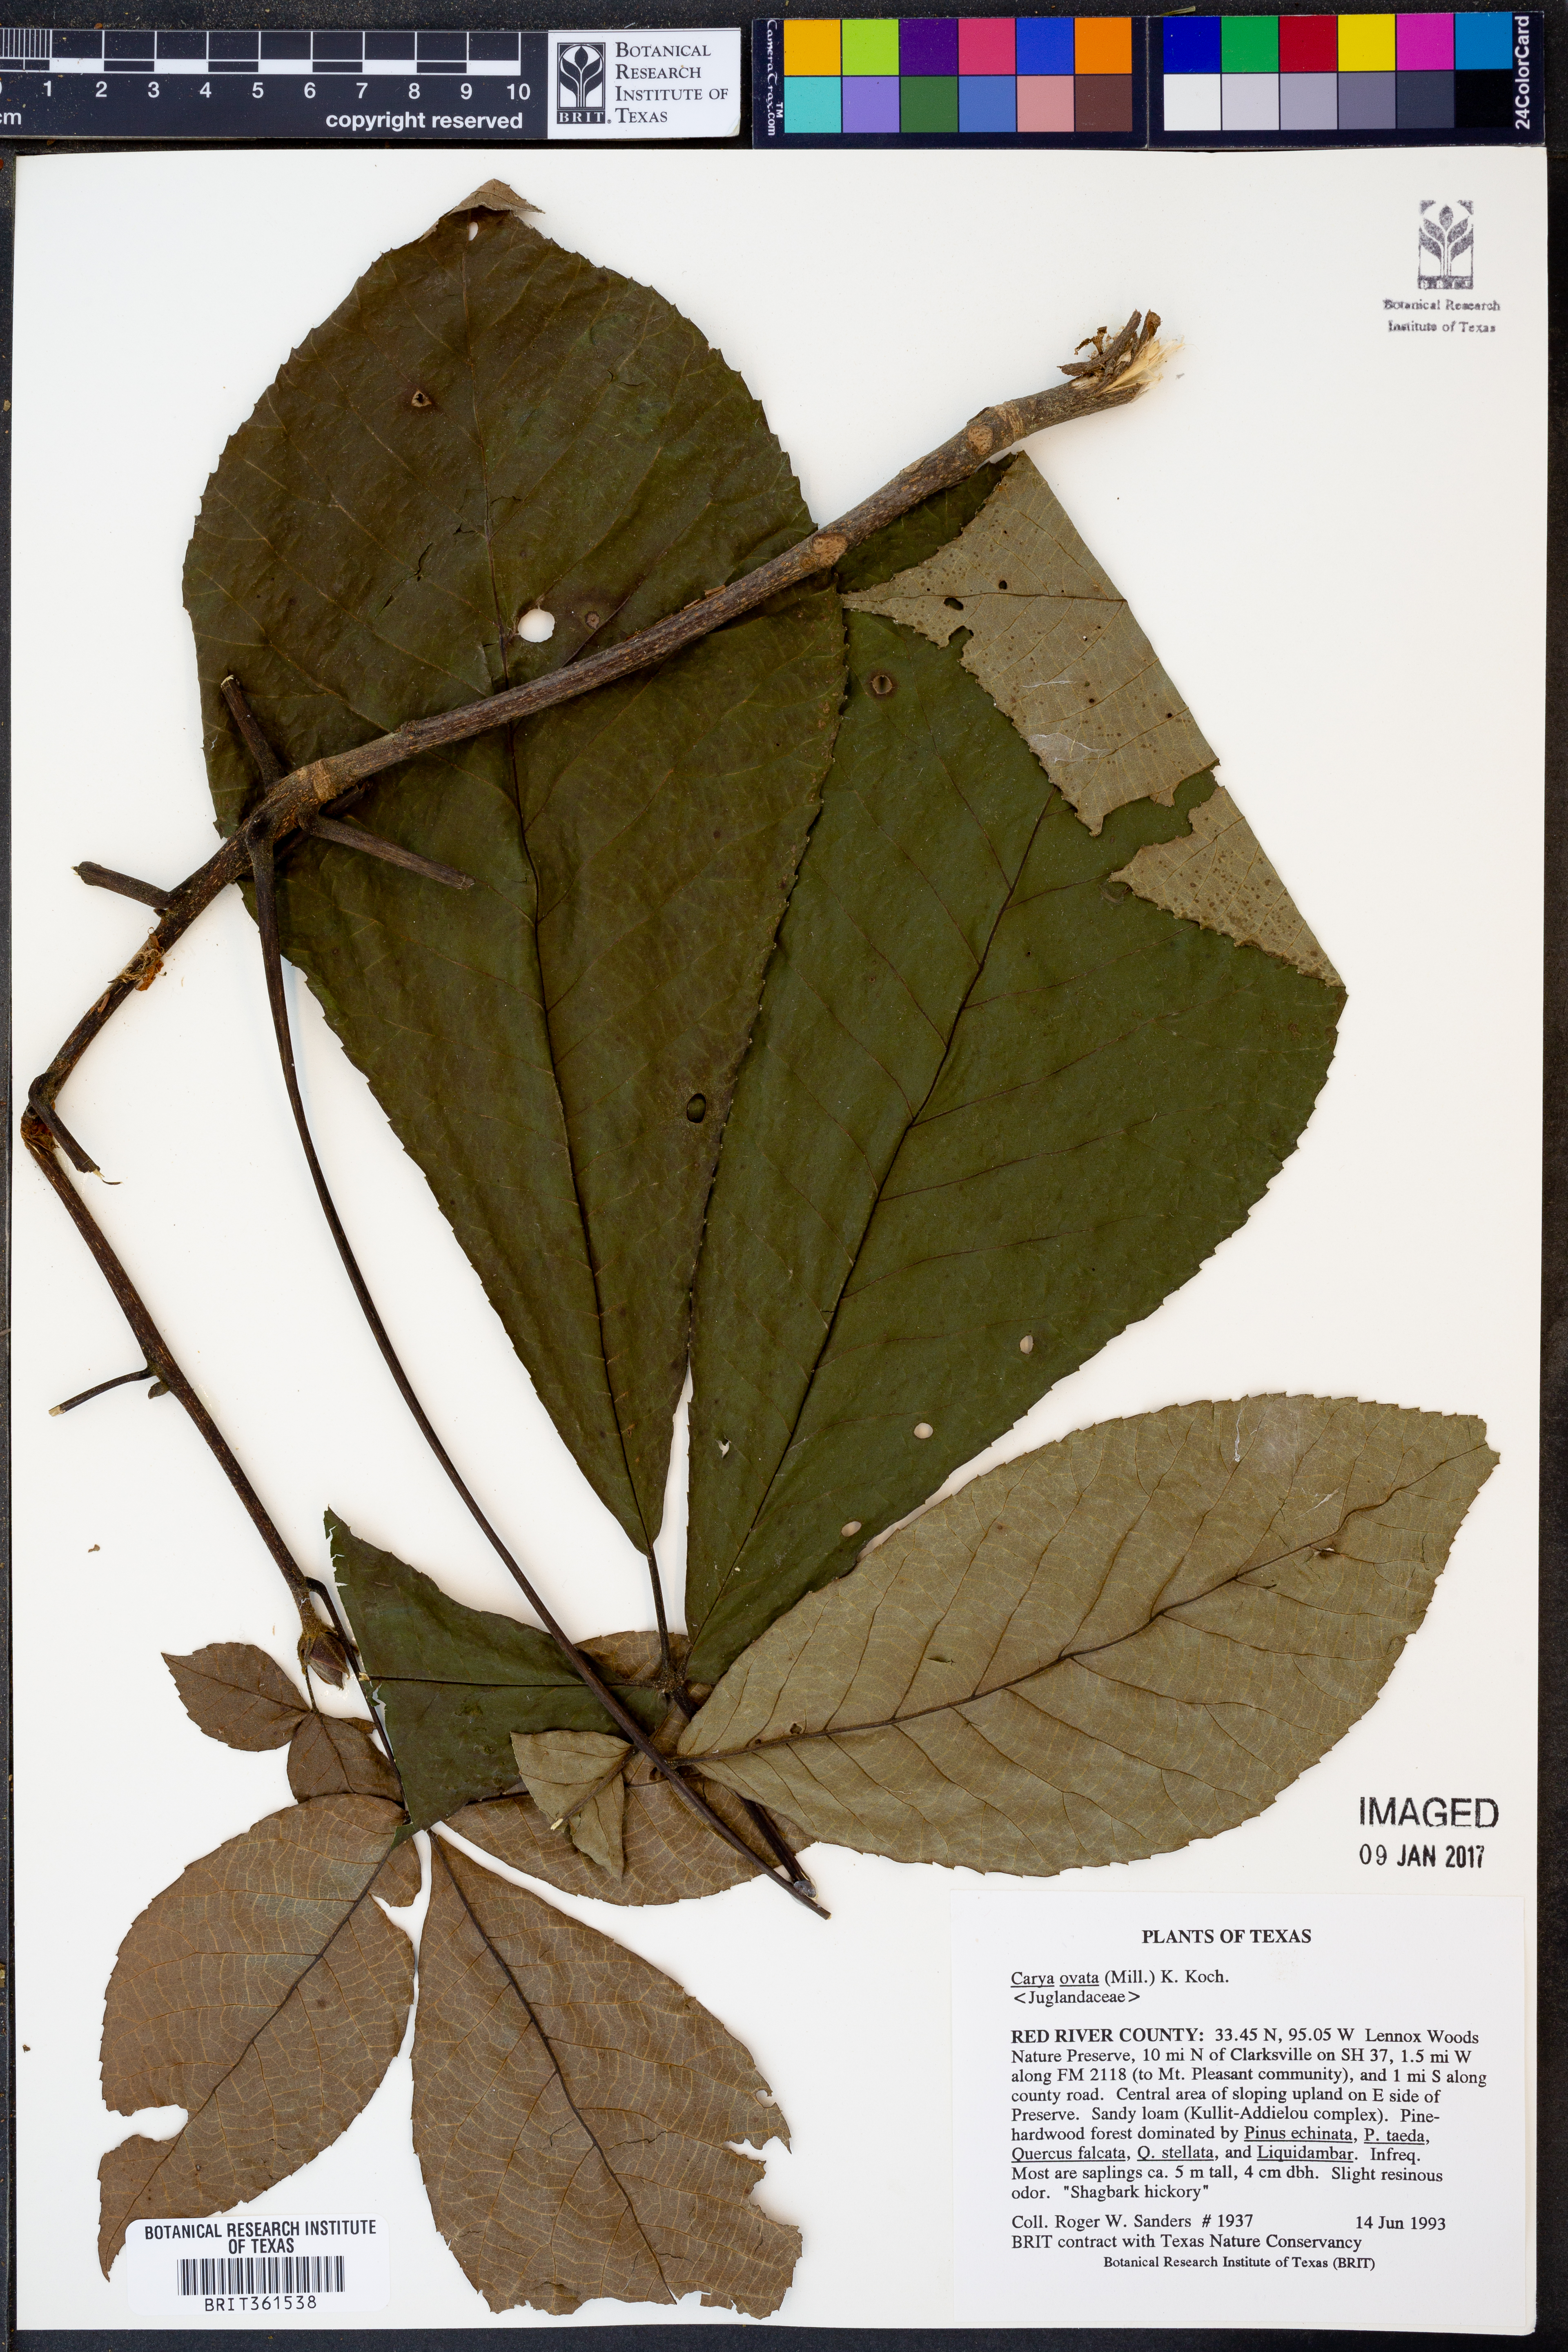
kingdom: Plantae
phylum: Tracheophyta
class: Magnoliopsida
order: Fagales
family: Juglandaceae
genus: Carya
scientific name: Carya ovata
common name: Shagbark hickory
